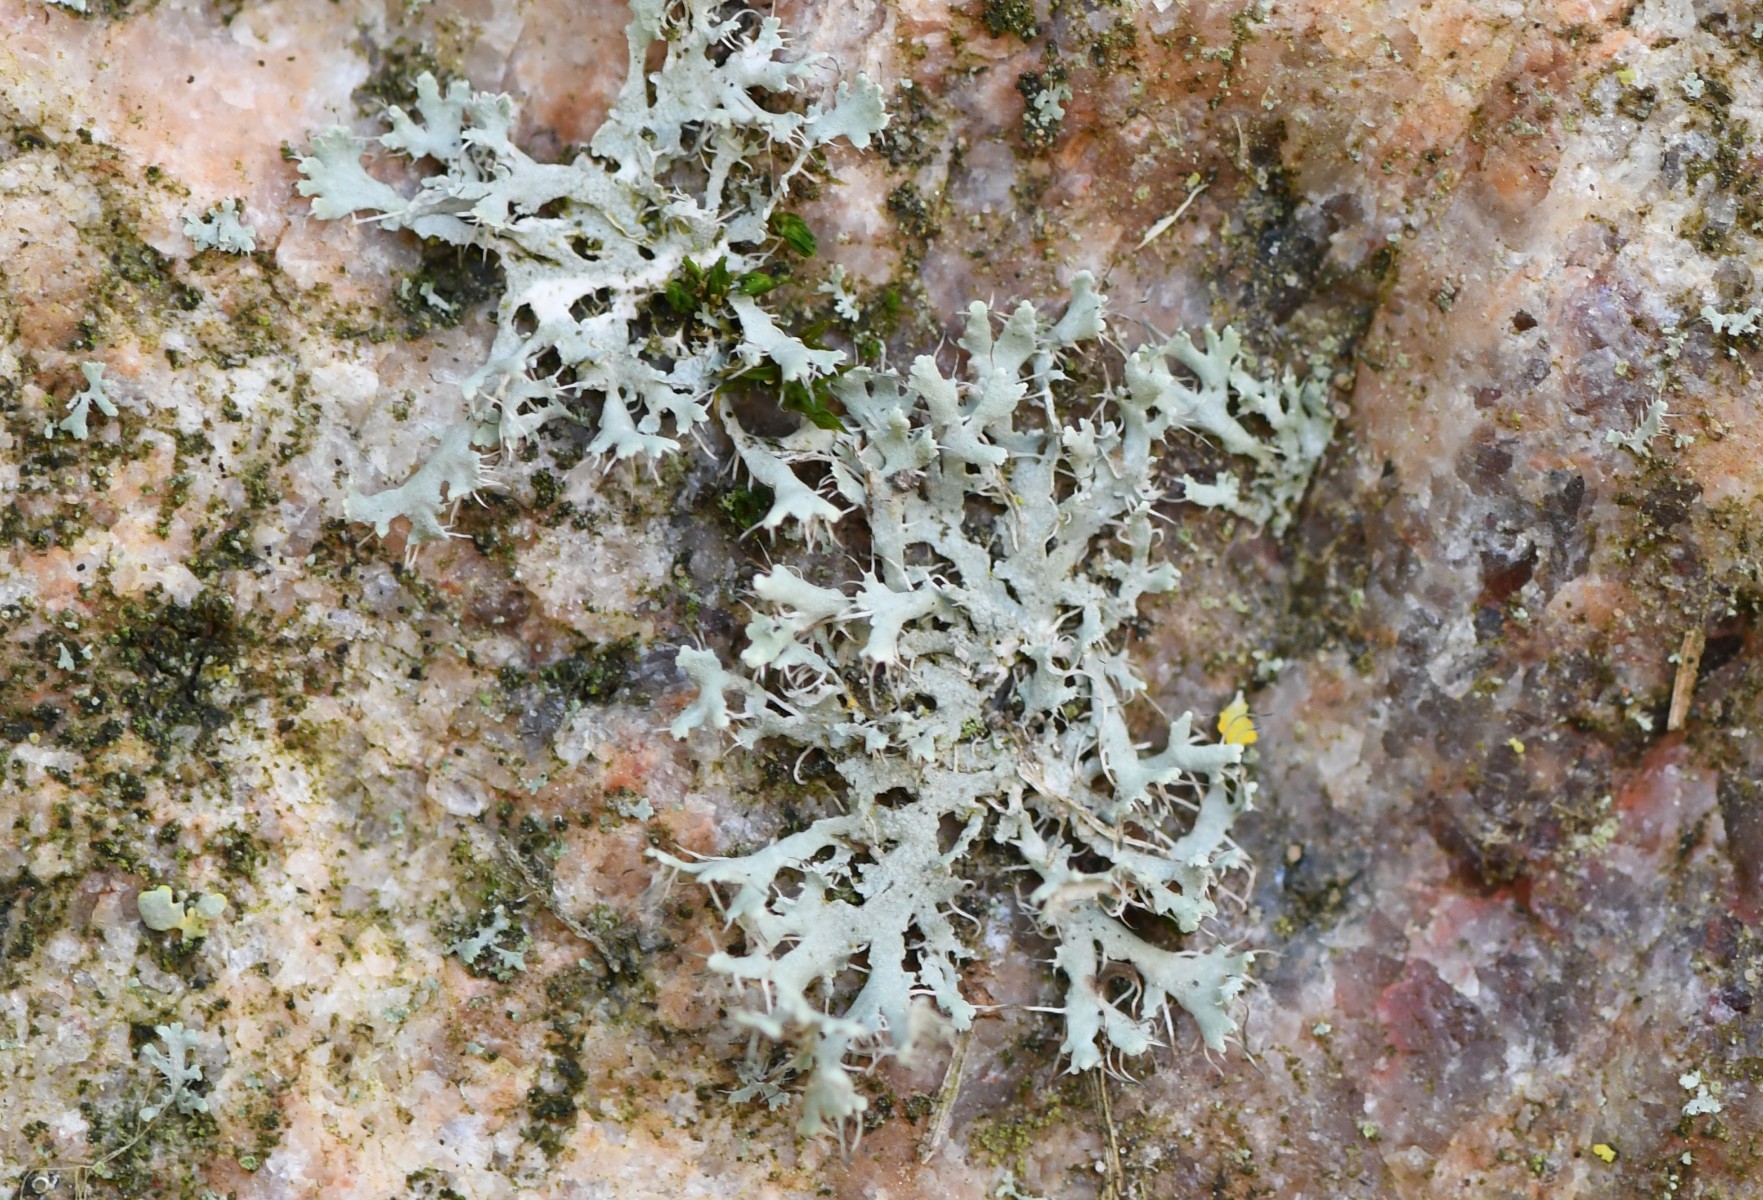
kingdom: Fungi
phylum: Ascomycota
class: Lecanoromycetes
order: Caliciales
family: Physciaceae
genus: Physcia
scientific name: Physcia tenella
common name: spæd rosetlav
